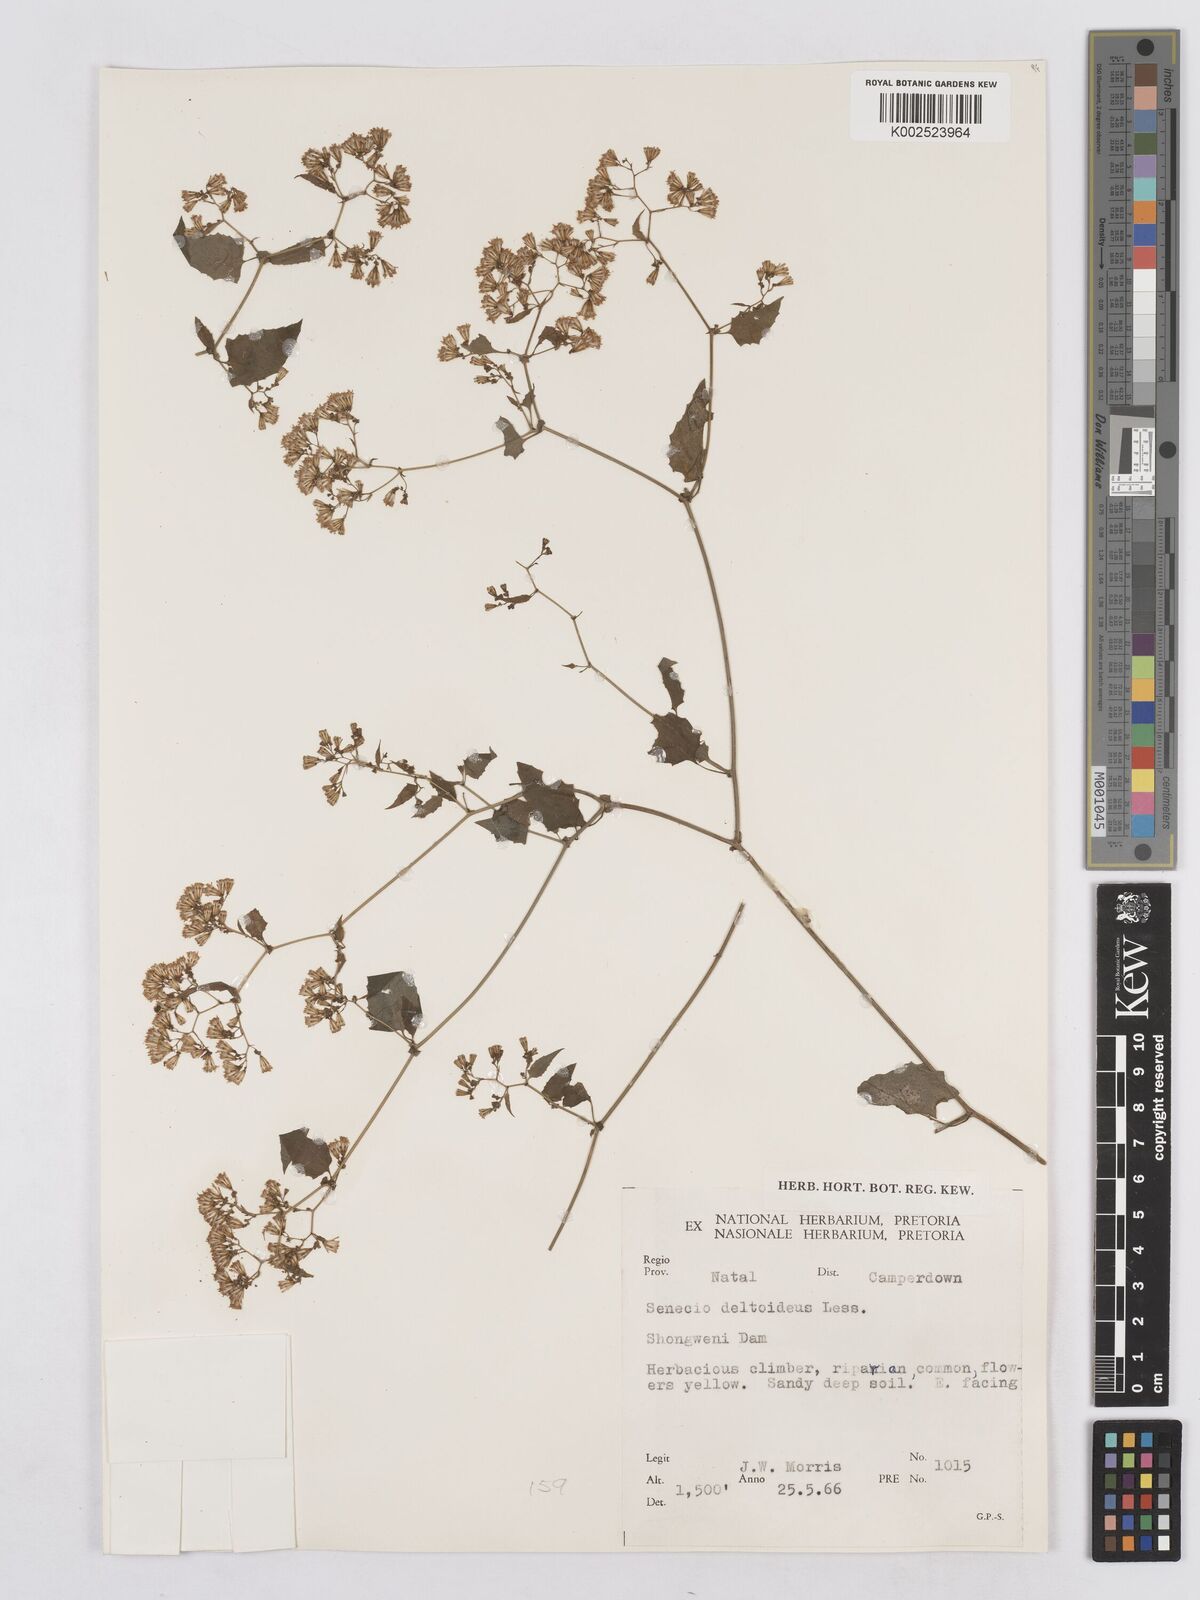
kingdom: Plantae
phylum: Tracheophyta
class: Magnoliopsida
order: Asterales
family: Asteraceae
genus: Senecio
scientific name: Senecio deltoideus
